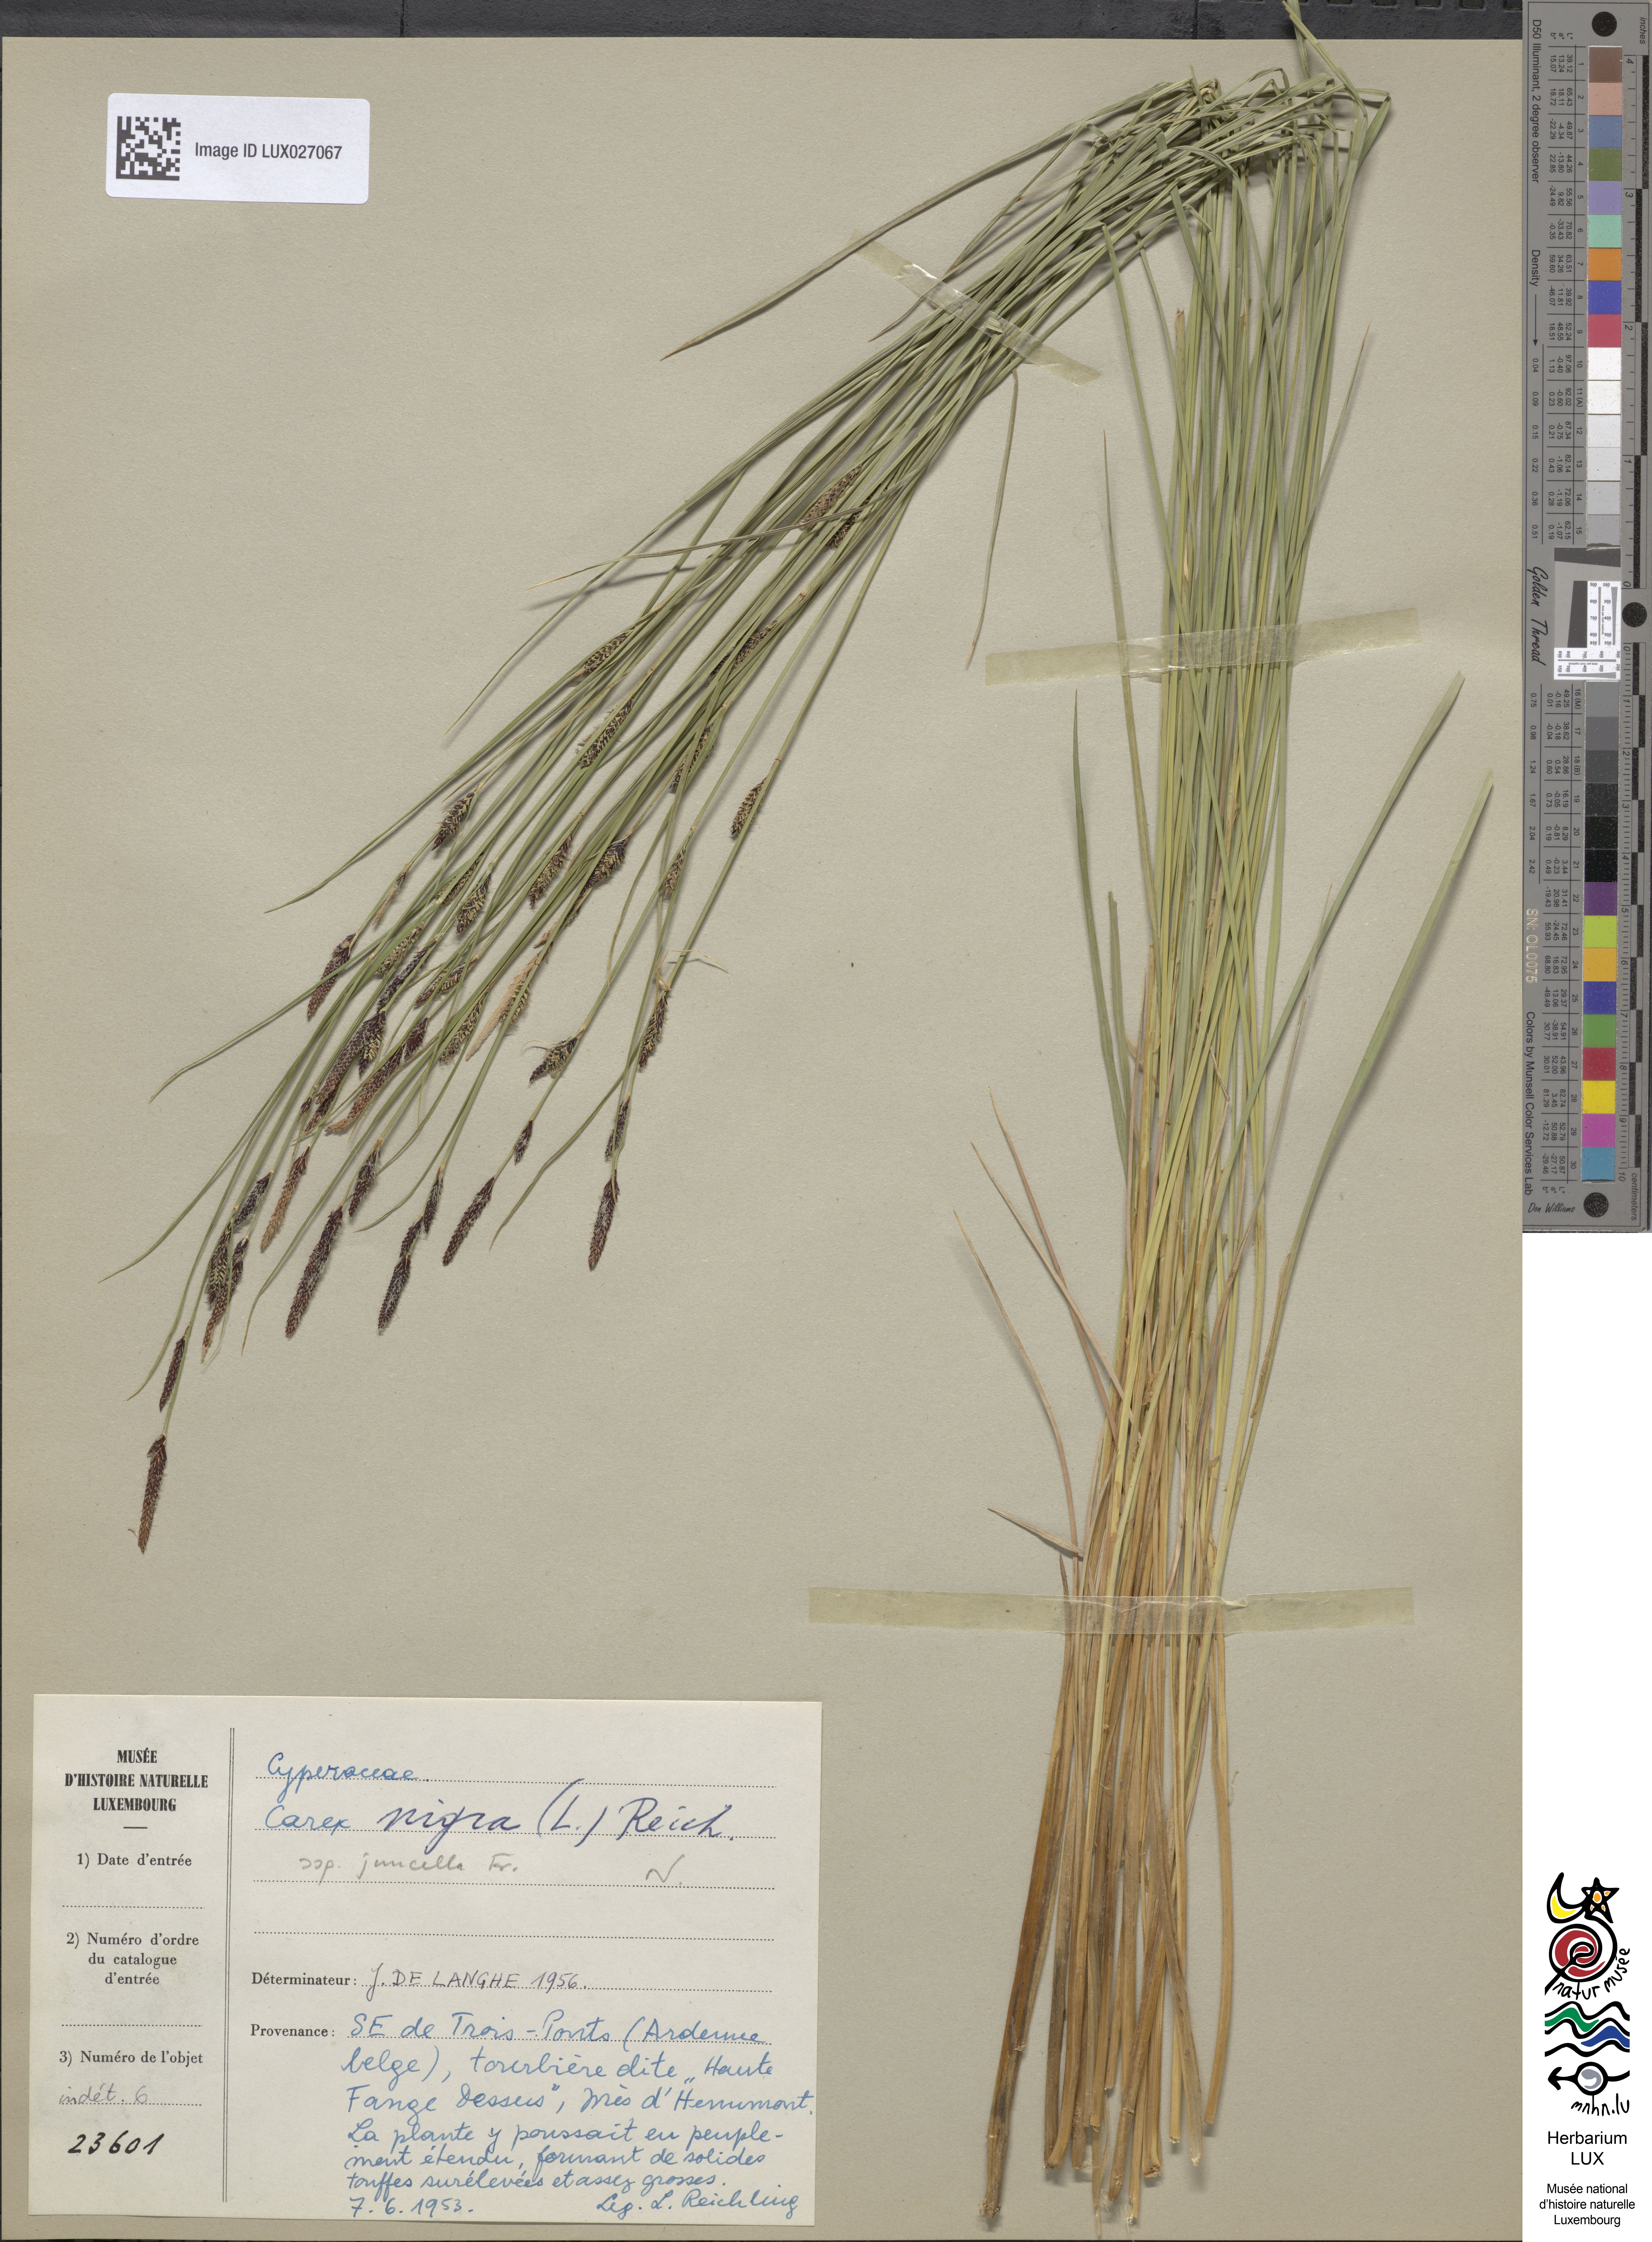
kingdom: Plantae
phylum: Tracheophyta
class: Liliopsida
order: Poales
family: Cyperaceae
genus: Carex
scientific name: Carex nigra
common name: Common sedge
